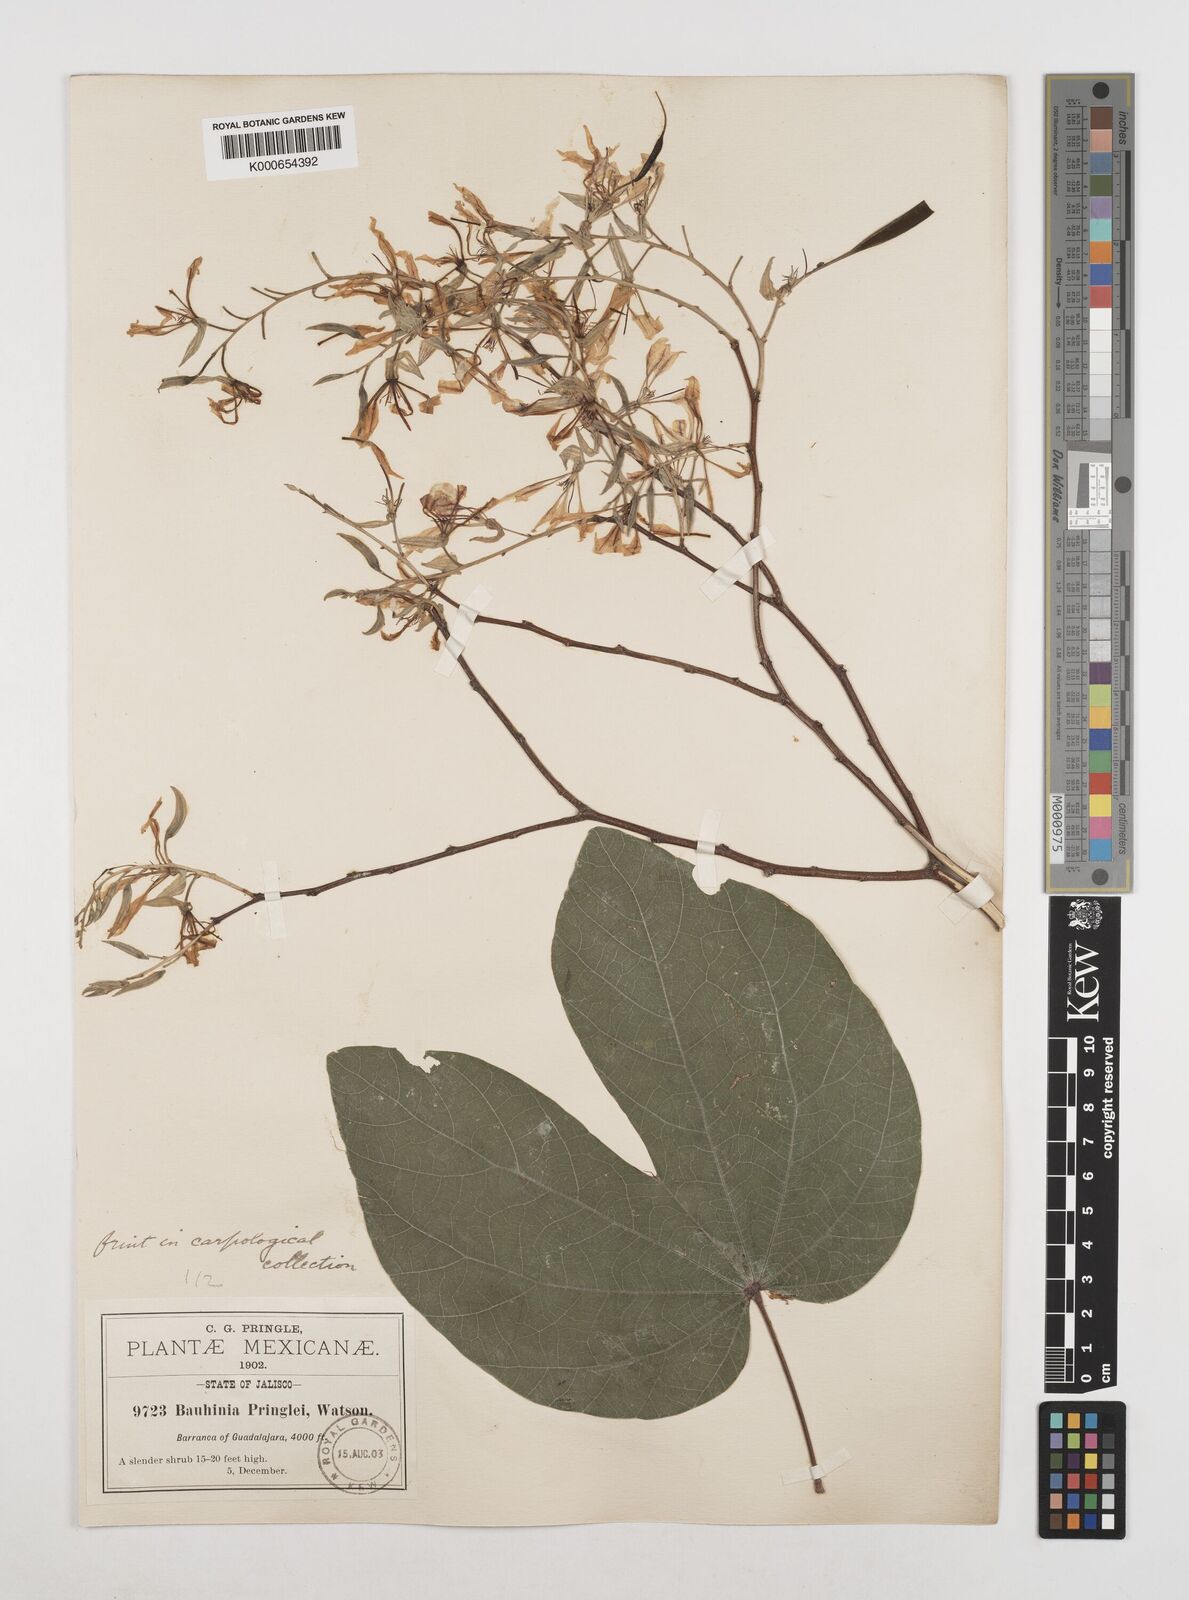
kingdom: Plantae
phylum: Tracheophyta
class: Magnoliopsida
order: Fabales
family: Fabaceae
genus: Bauhinia
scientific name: Bauhinia pringlei
